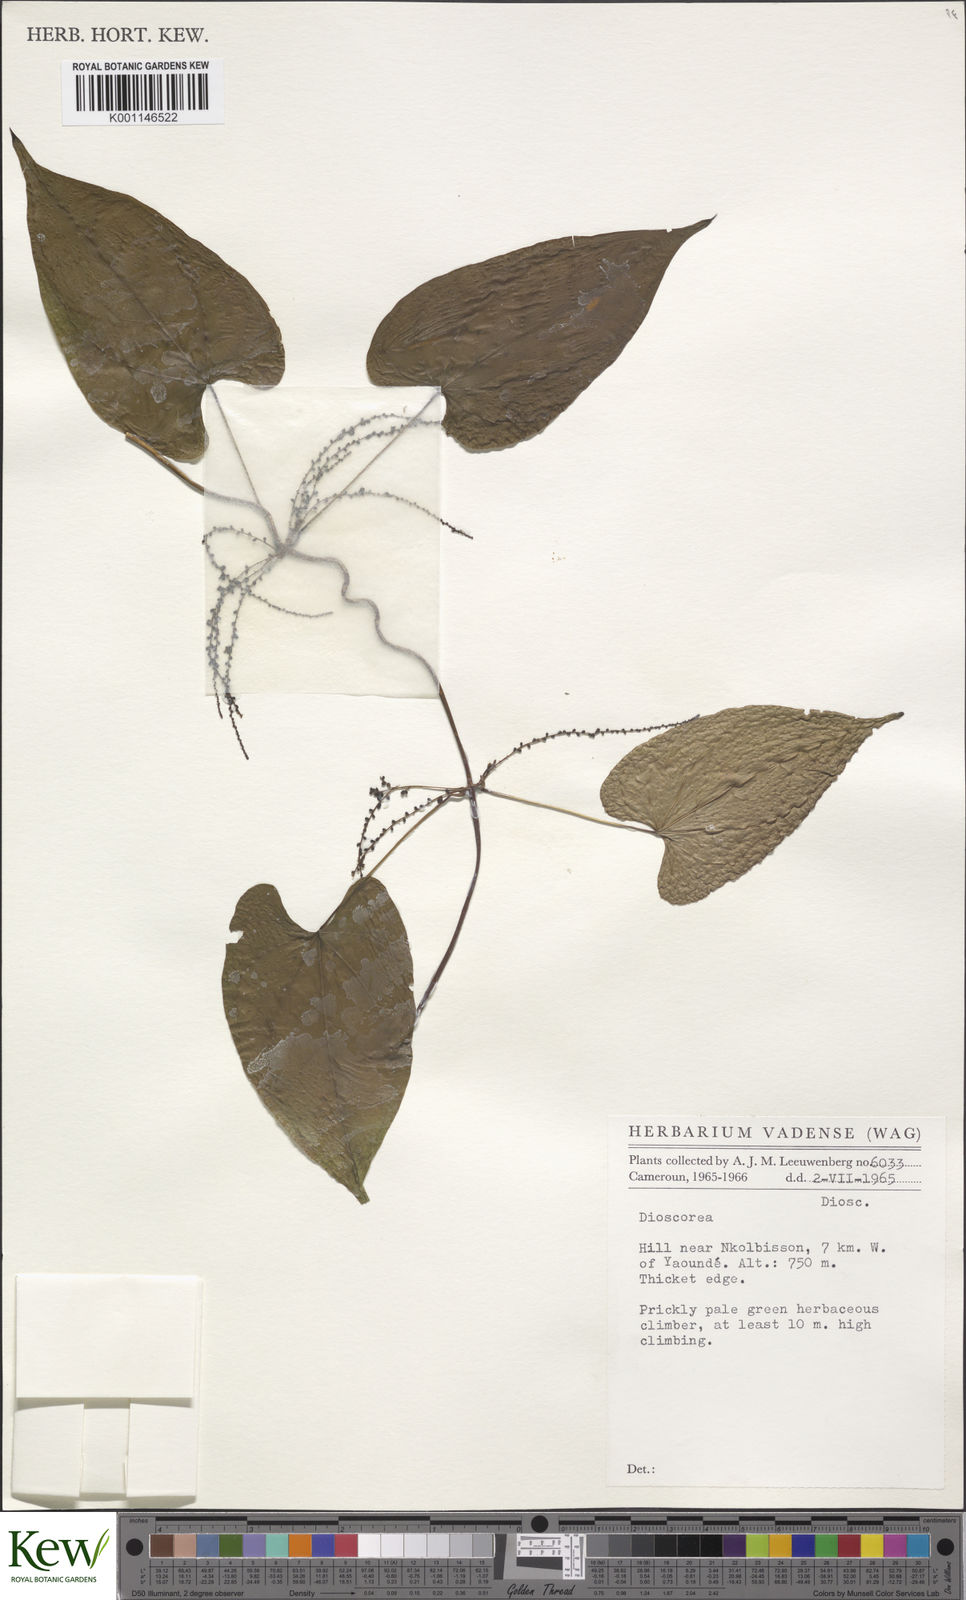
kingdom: Plantae
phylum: Tracheophyta
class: Liliopsida
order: Dioscoreales
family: Dioscoreaceae
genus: Dioscorea
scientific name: Dioscorea
